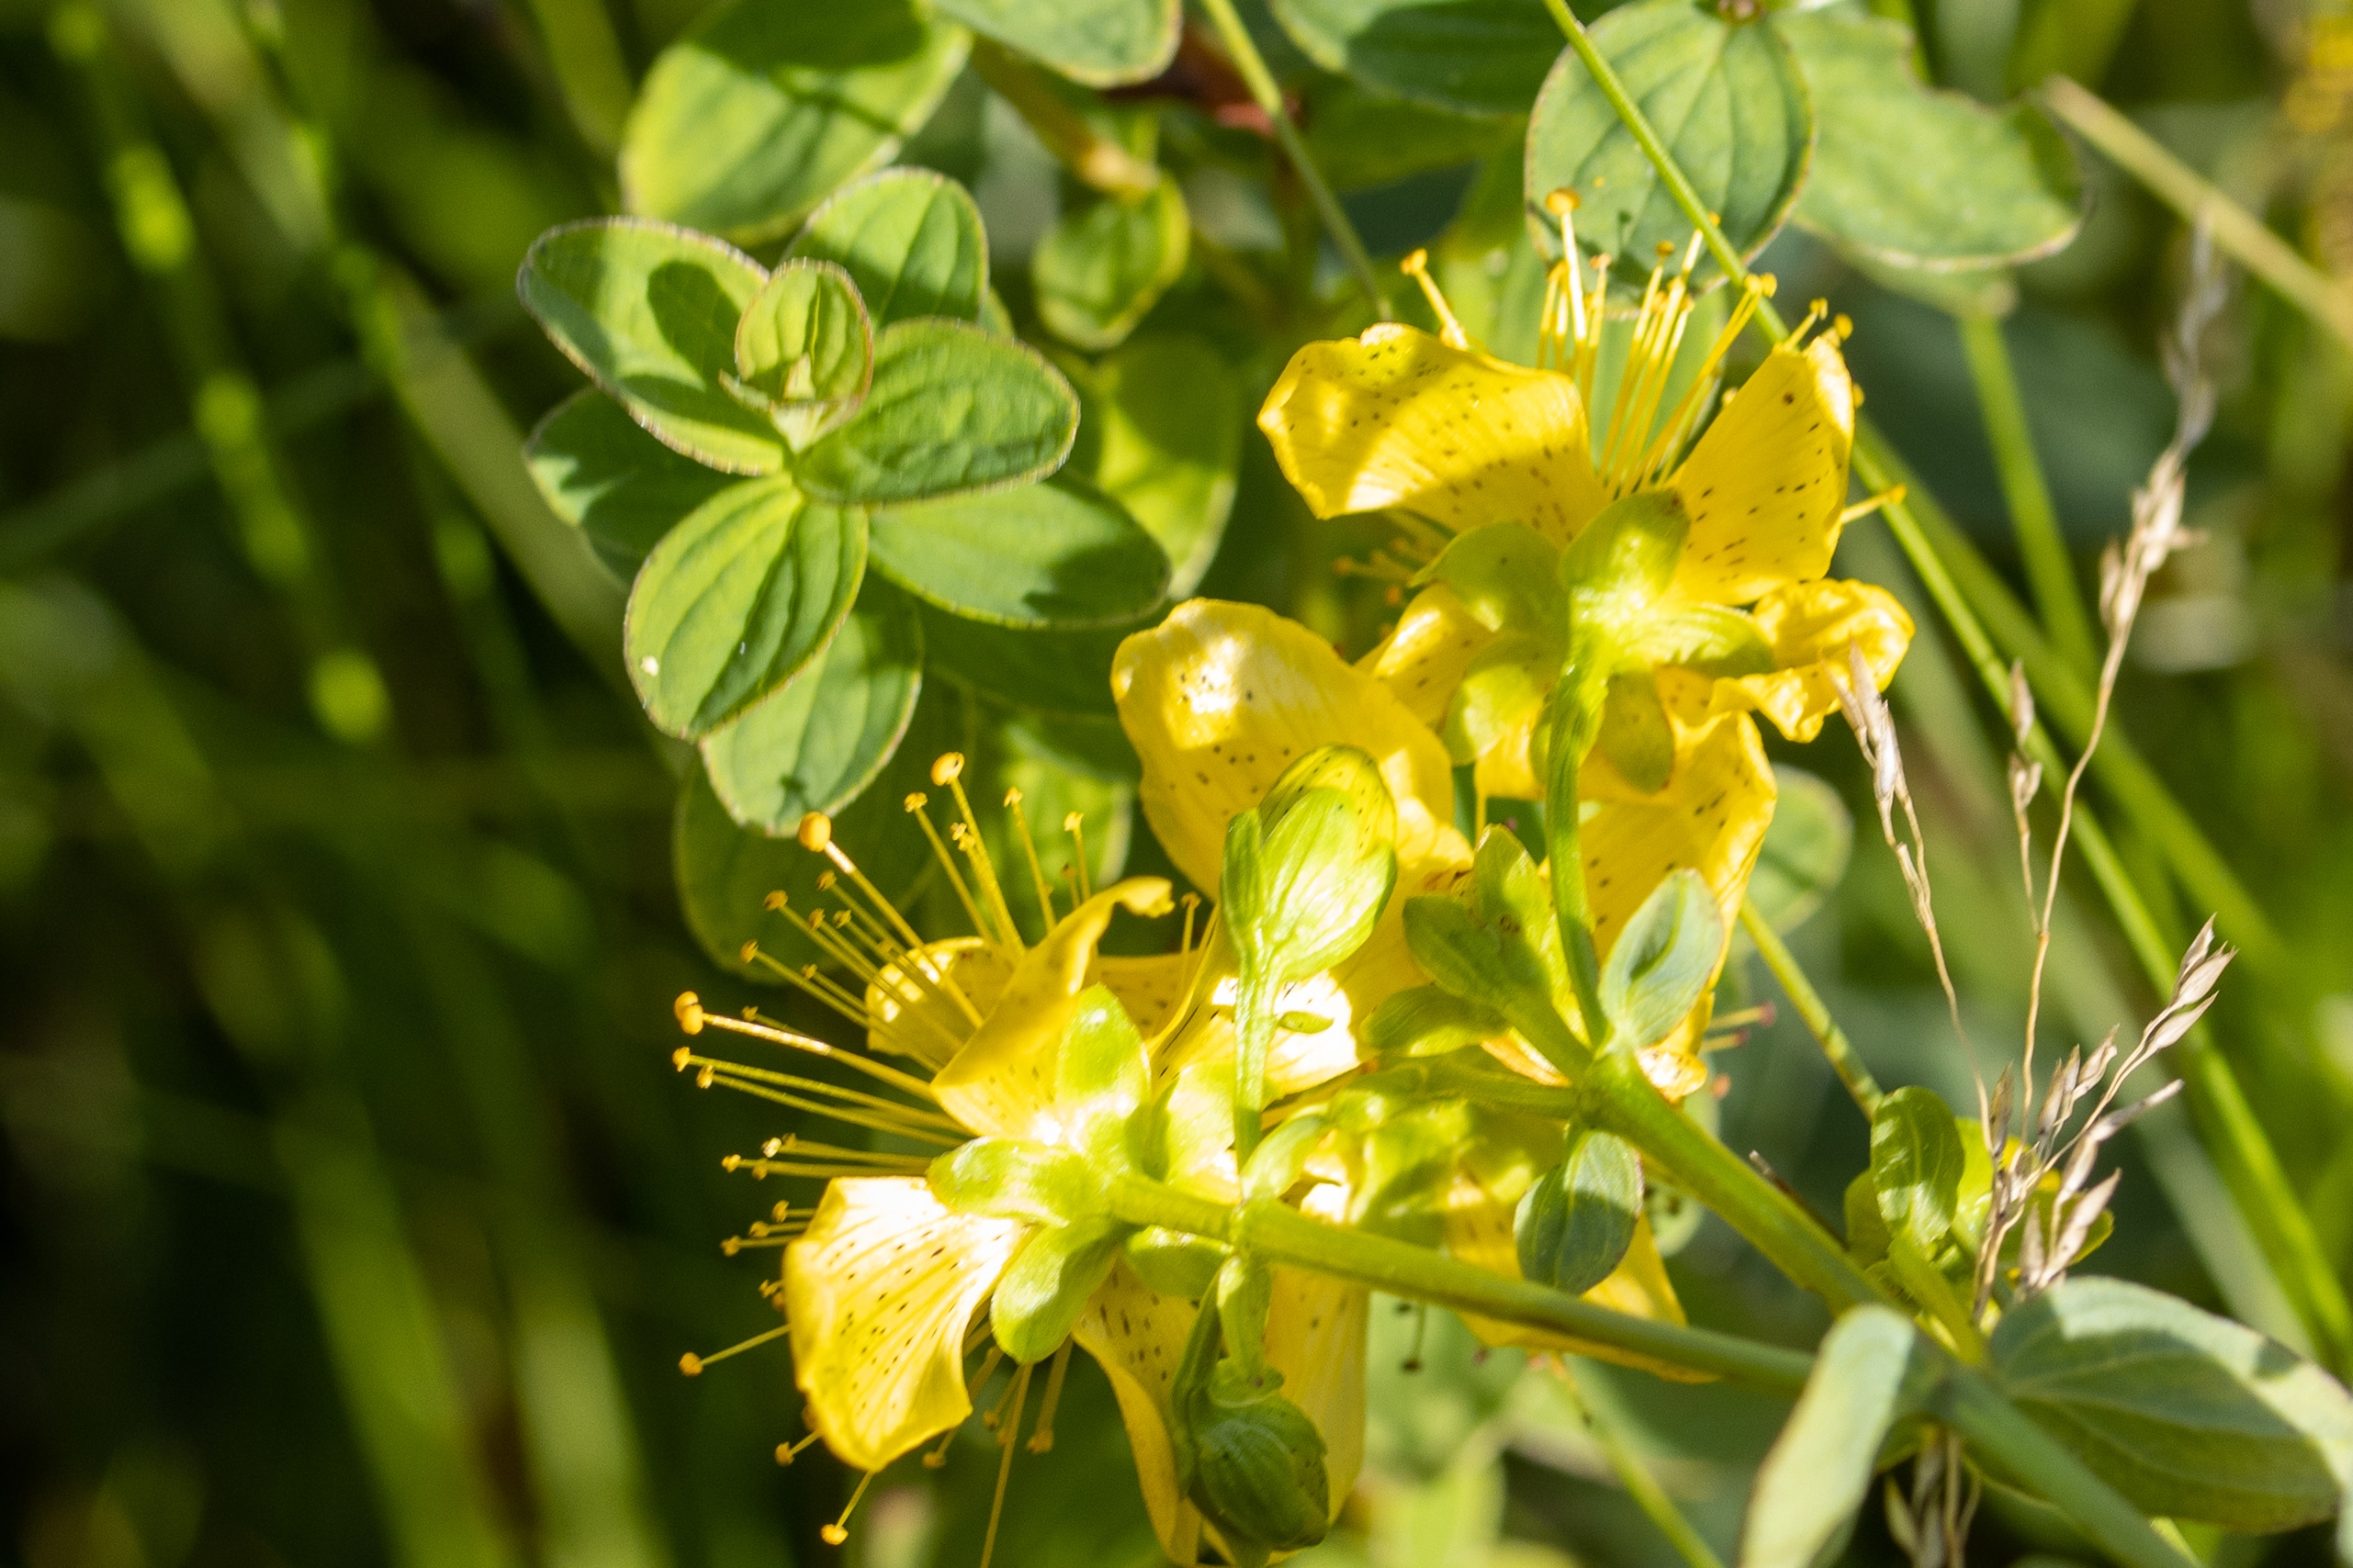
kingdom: Plantae
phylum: Tracheophyta
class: Magnoliopsida
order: Malpighiales
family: Hypericaceae
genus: Hypericum
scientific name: Hypericum maculatum
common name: Kantet perikon
